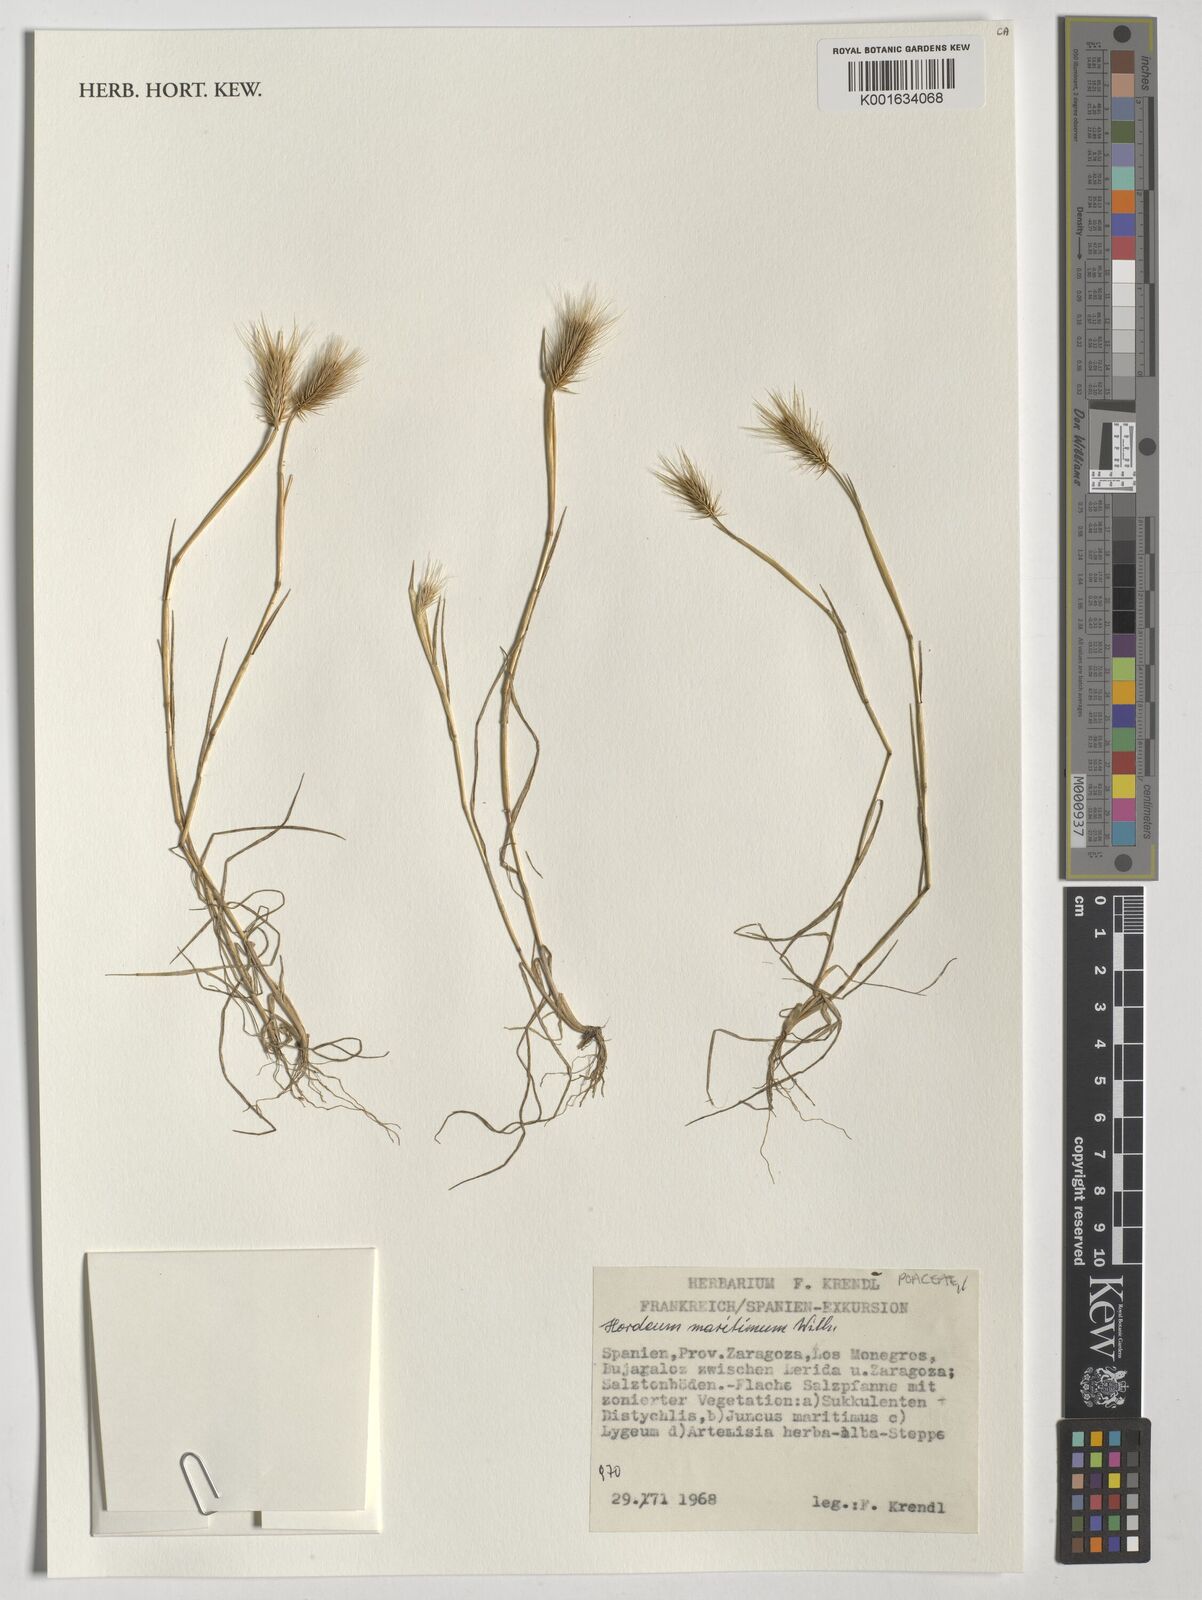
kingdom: Plantae
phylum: Tracheophyta
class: Liliopsida
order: Poales
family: Poaceae
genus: Hordeum
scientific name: Hordeum marinum
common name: Sea barley
